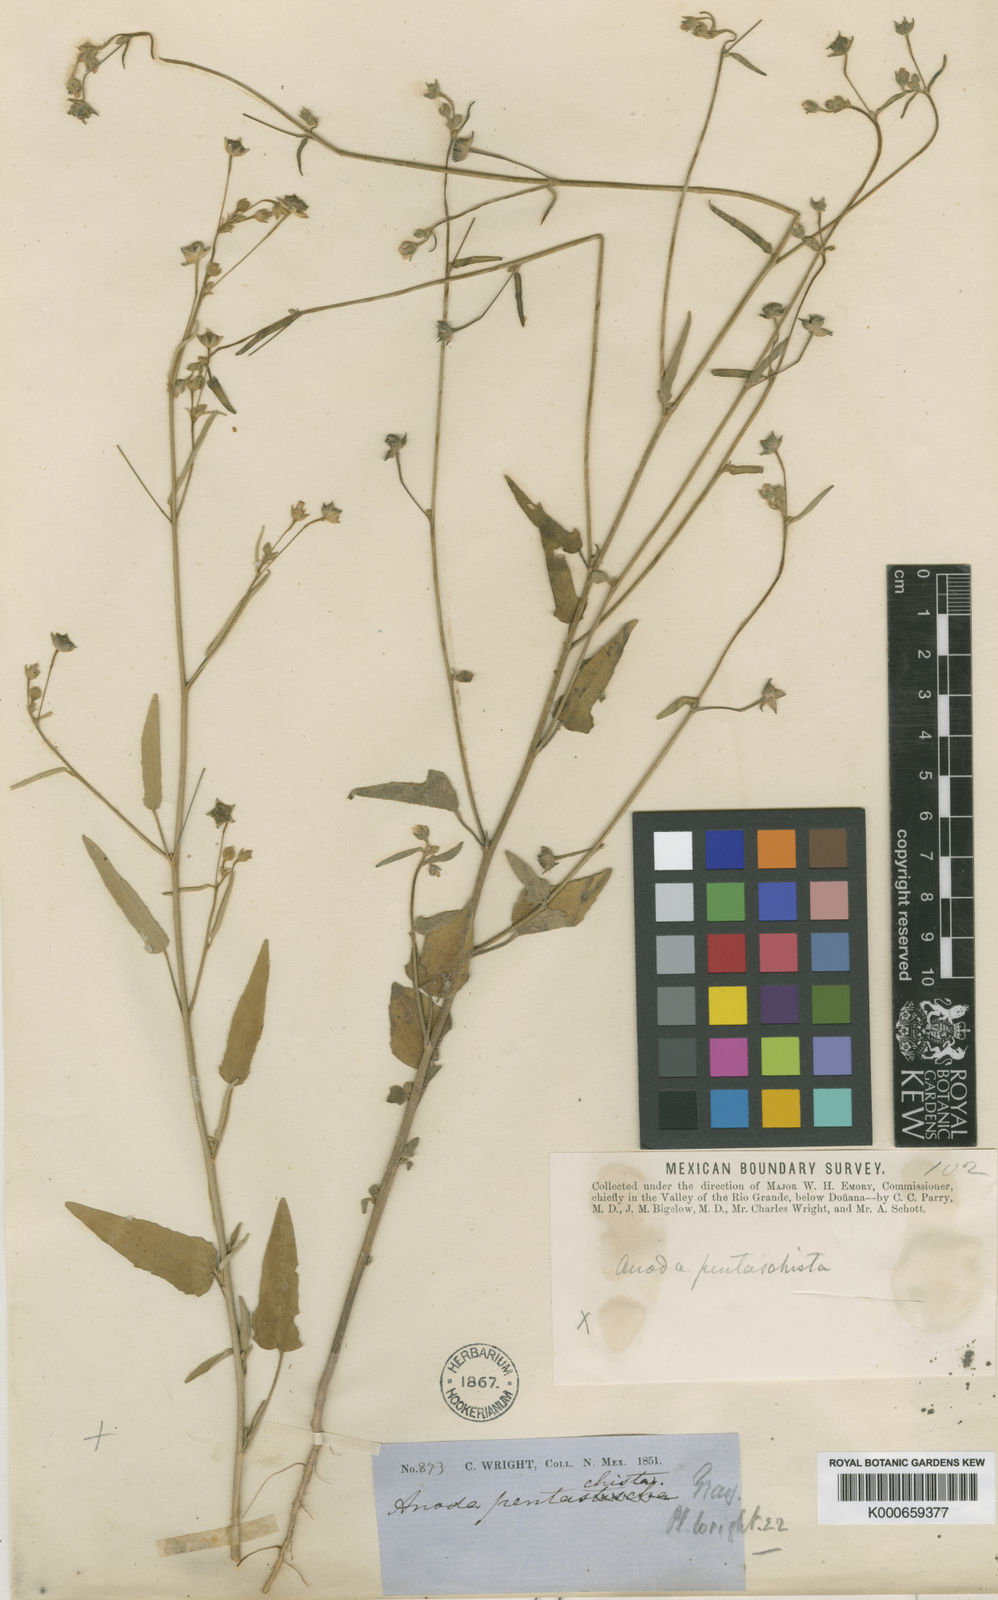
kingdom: Plantae
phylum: Tracheophyta
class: Magnoliopsida
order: Malvales
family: Malvaceae
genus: Anoda
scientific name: Anoda pentaschista
